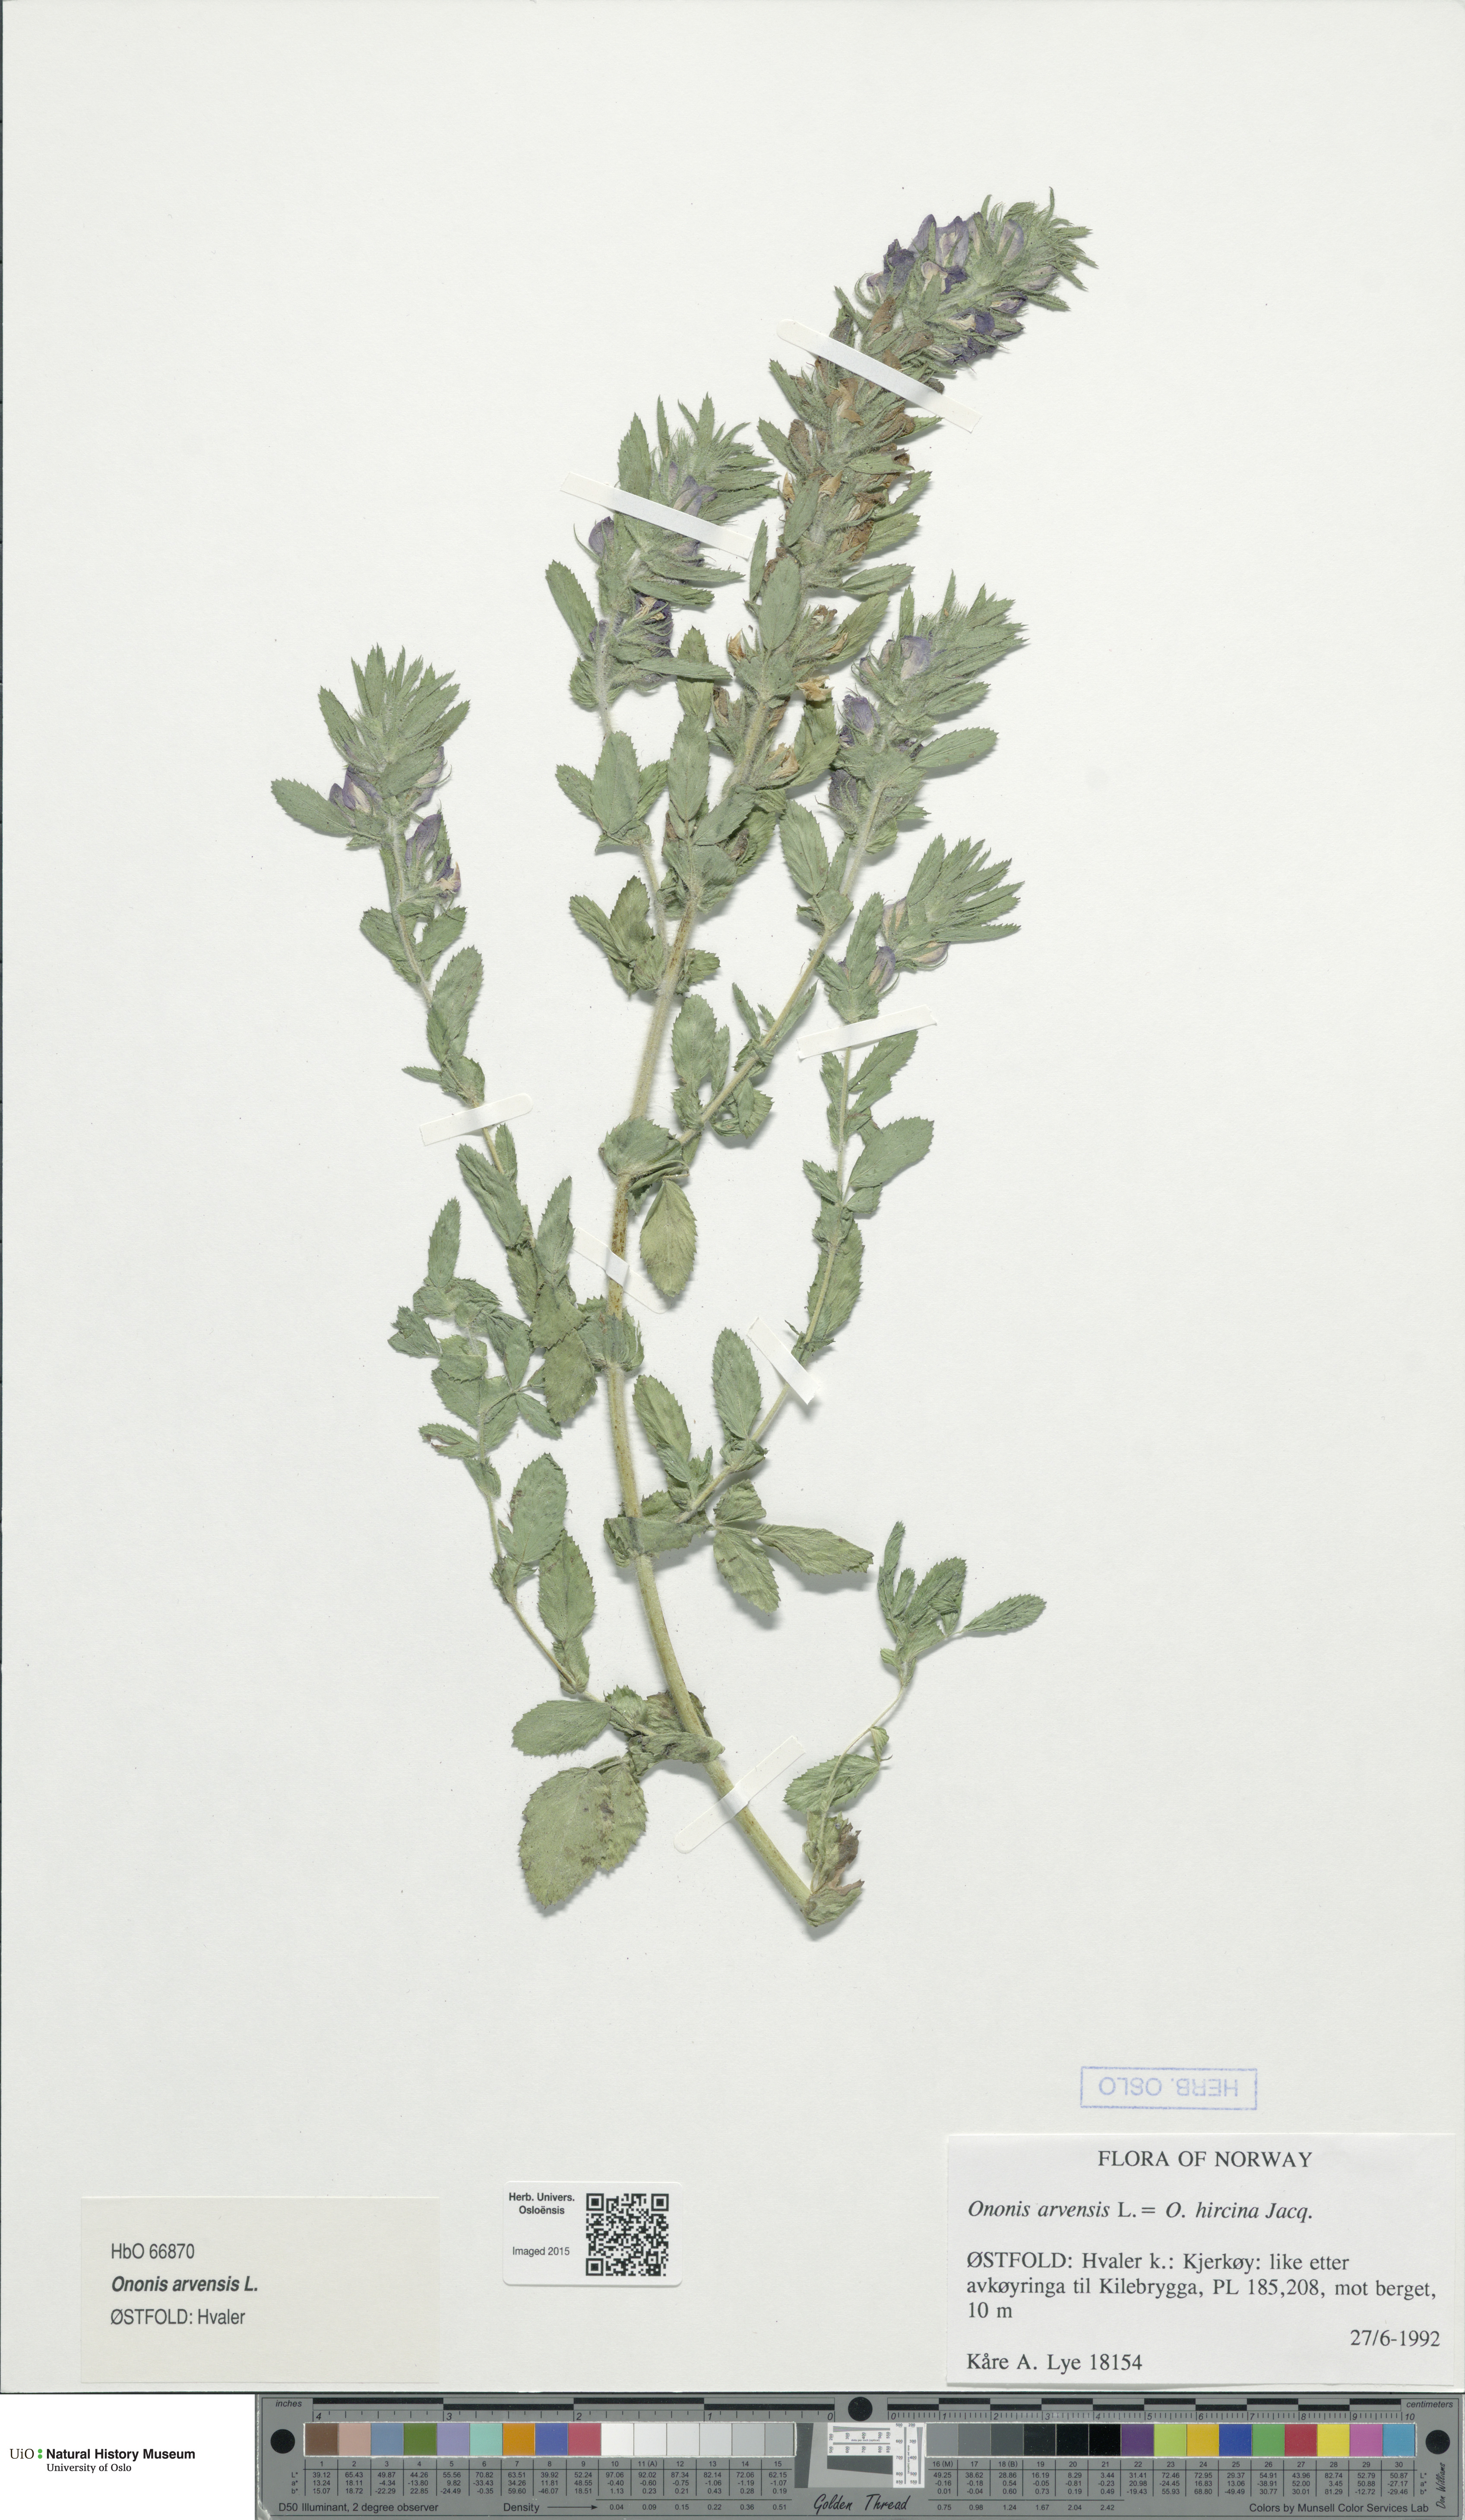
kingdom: Plantae
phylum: Tracheophyta
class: Magnoliopsida
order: Fabales
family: Fabaceae
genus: Ononis
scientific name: Ononis arvensis
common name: Field restharrow
